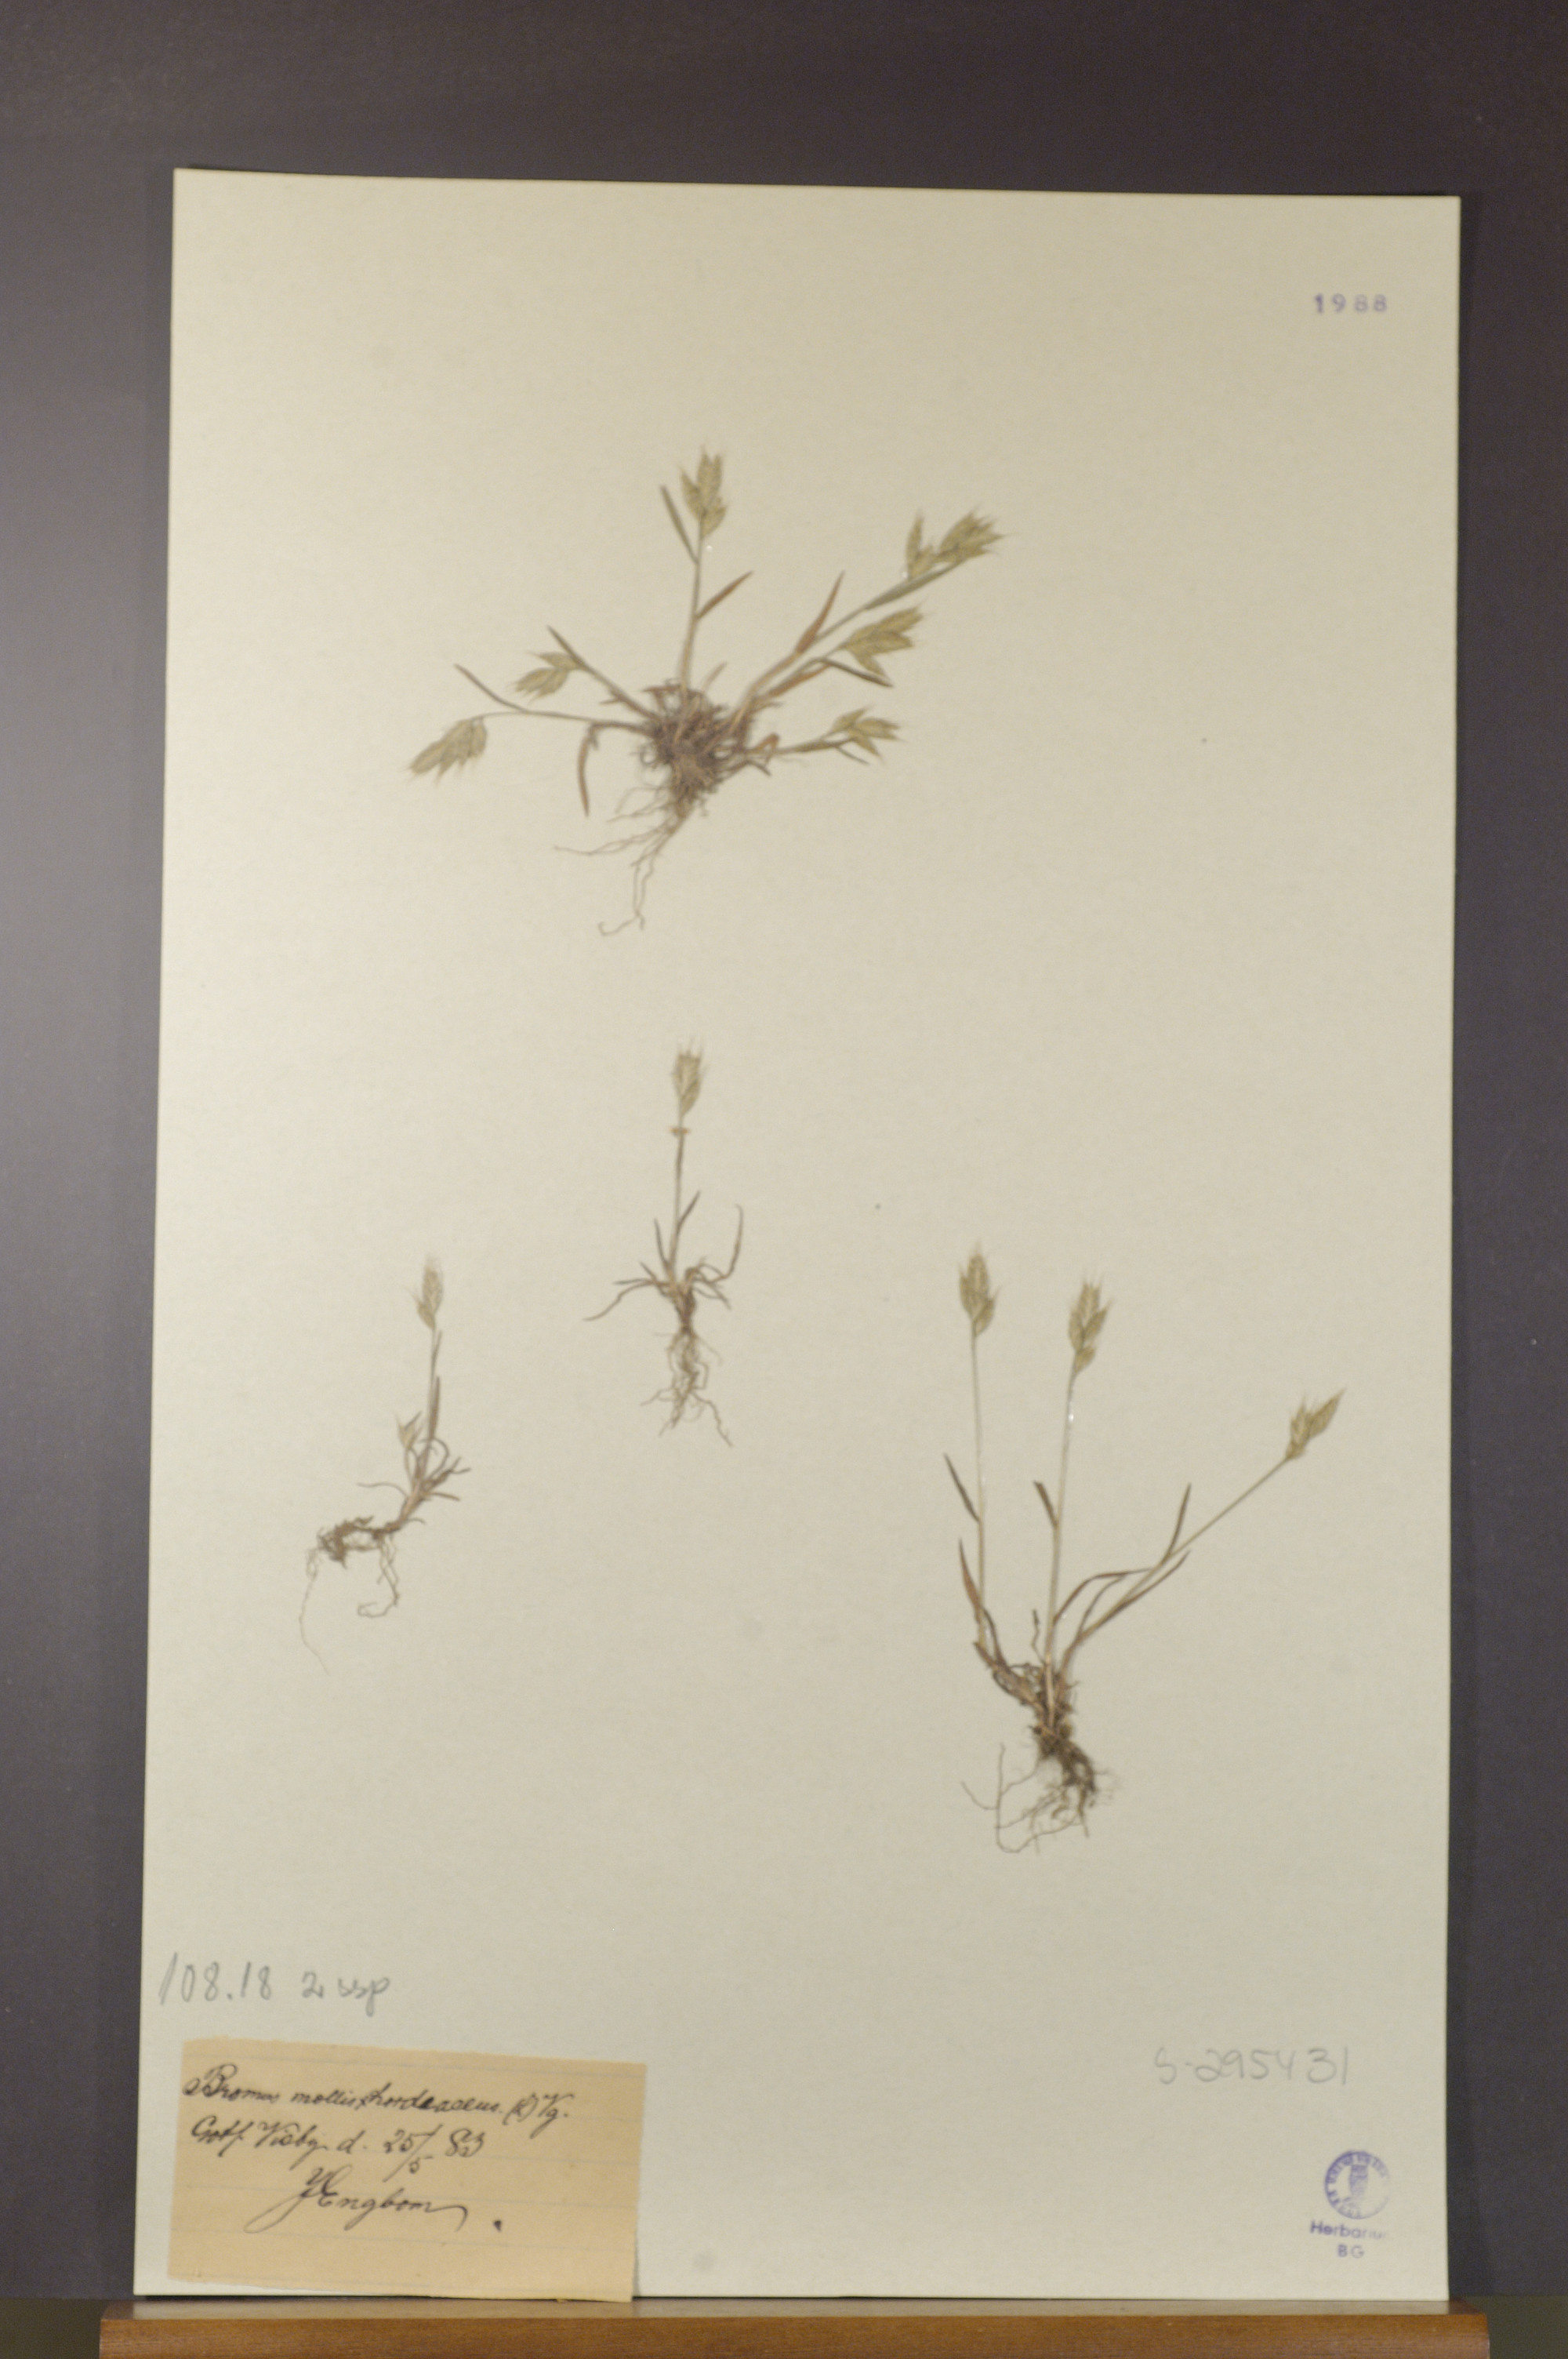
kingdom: Plantae
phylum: Tracheophyta
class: Liliopsida
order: Poales
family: Poaceae
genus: Bromus
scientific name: Bromus hordeaceus
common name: Soft brome
